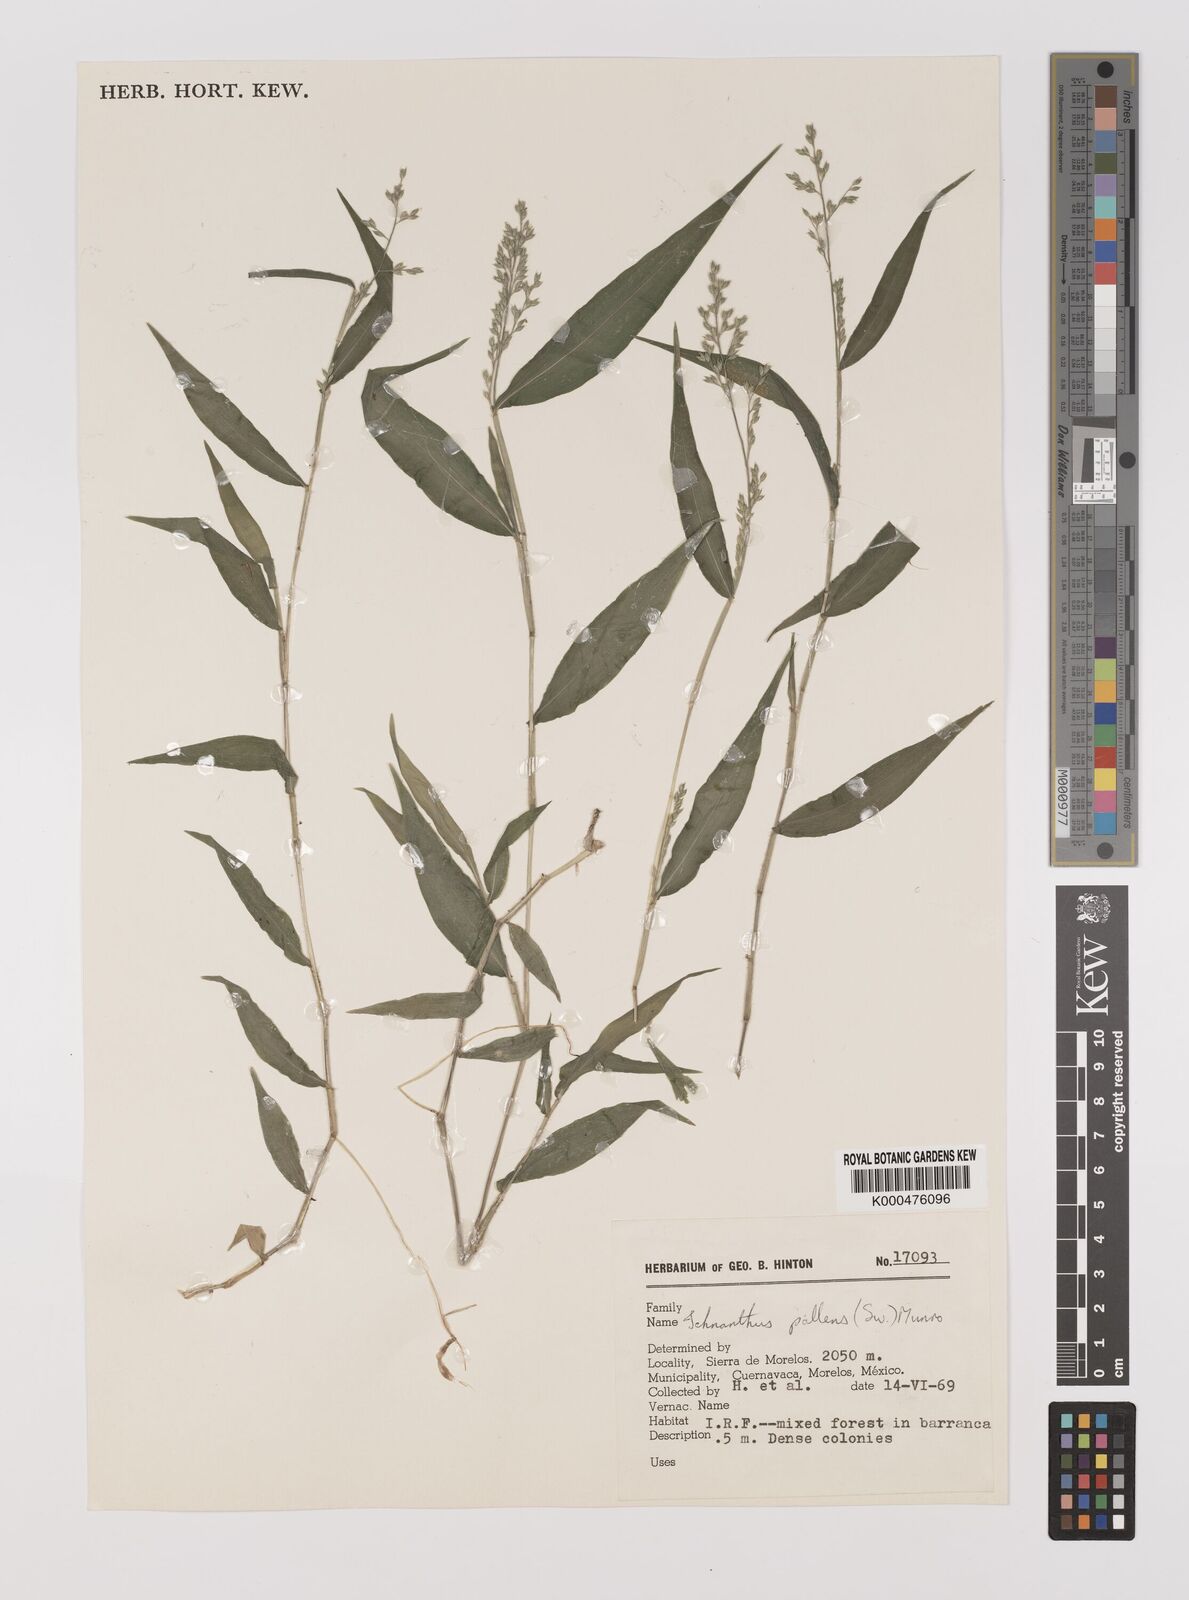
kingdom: Plantae
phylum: Tracheophyta
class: Liliopsida
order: Poales
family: Poaceae
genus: Ichnanthus
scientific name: Ichnanthus pallens
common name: Water grass
